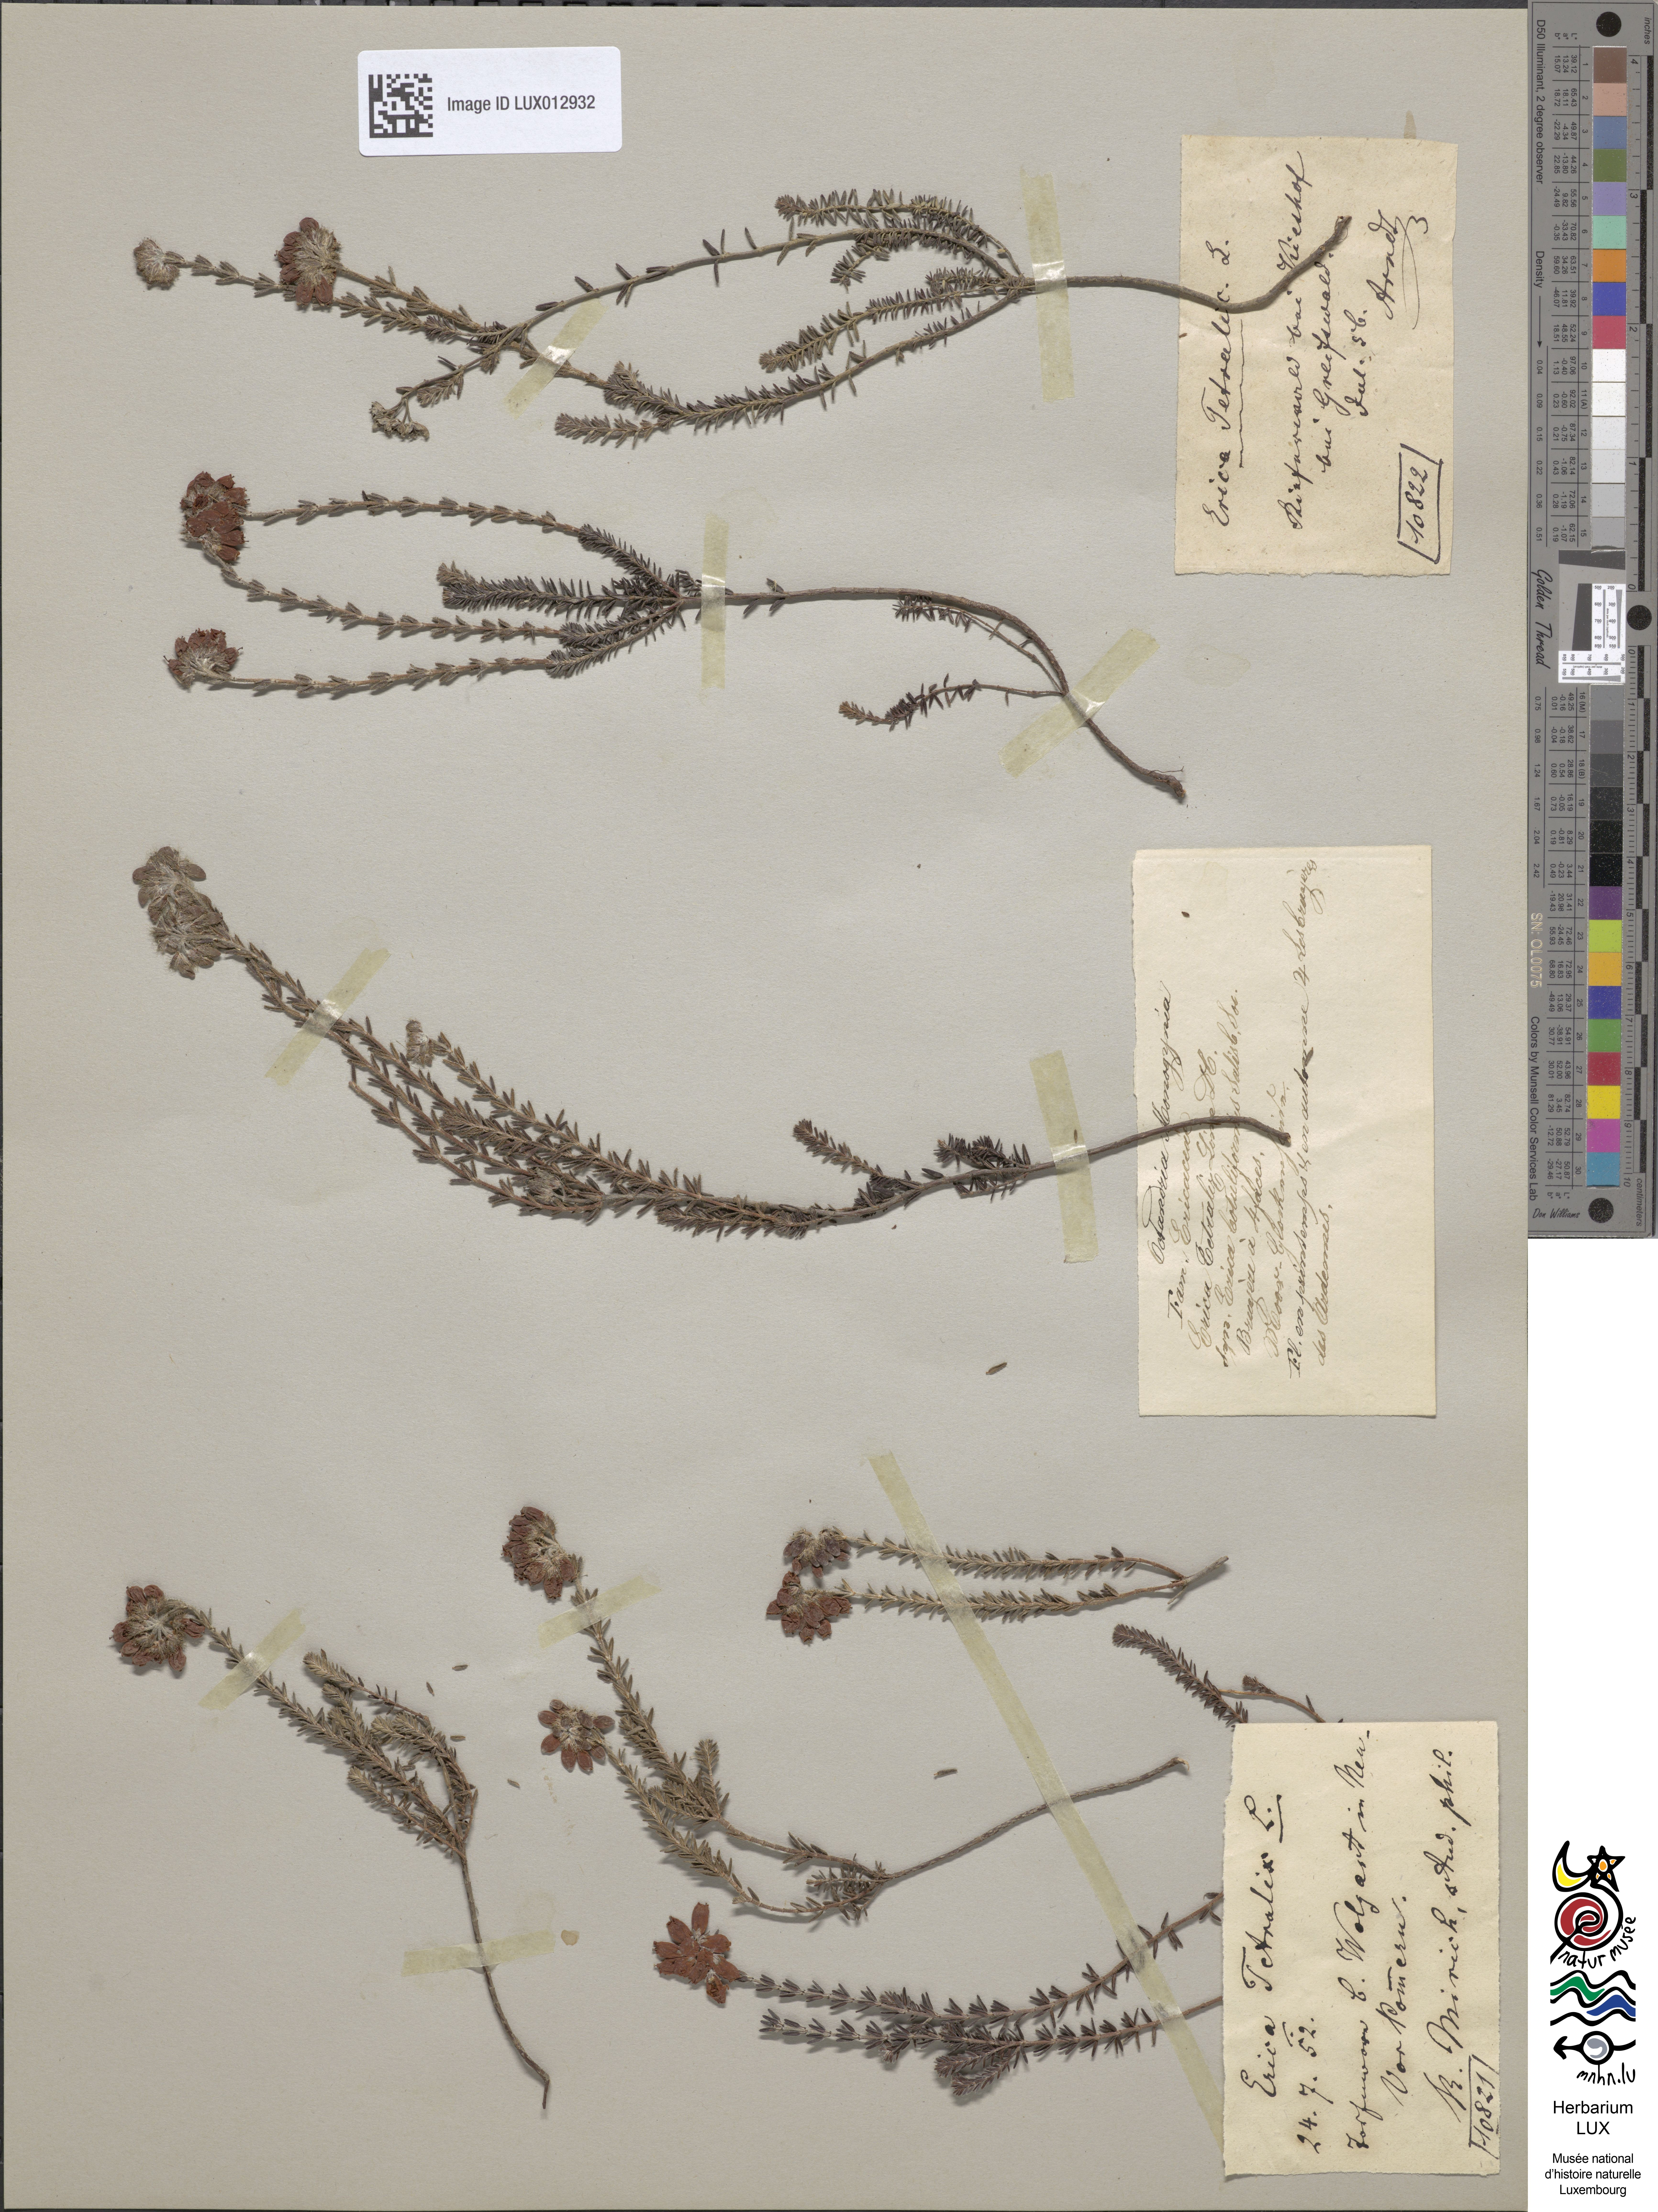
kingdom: Plantae
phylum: Tracheophyta
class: Magnoliopsida
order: Ericales
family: Ericaceae
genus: Erica
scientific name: Erica tetralix
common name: Cross-leaved heath
